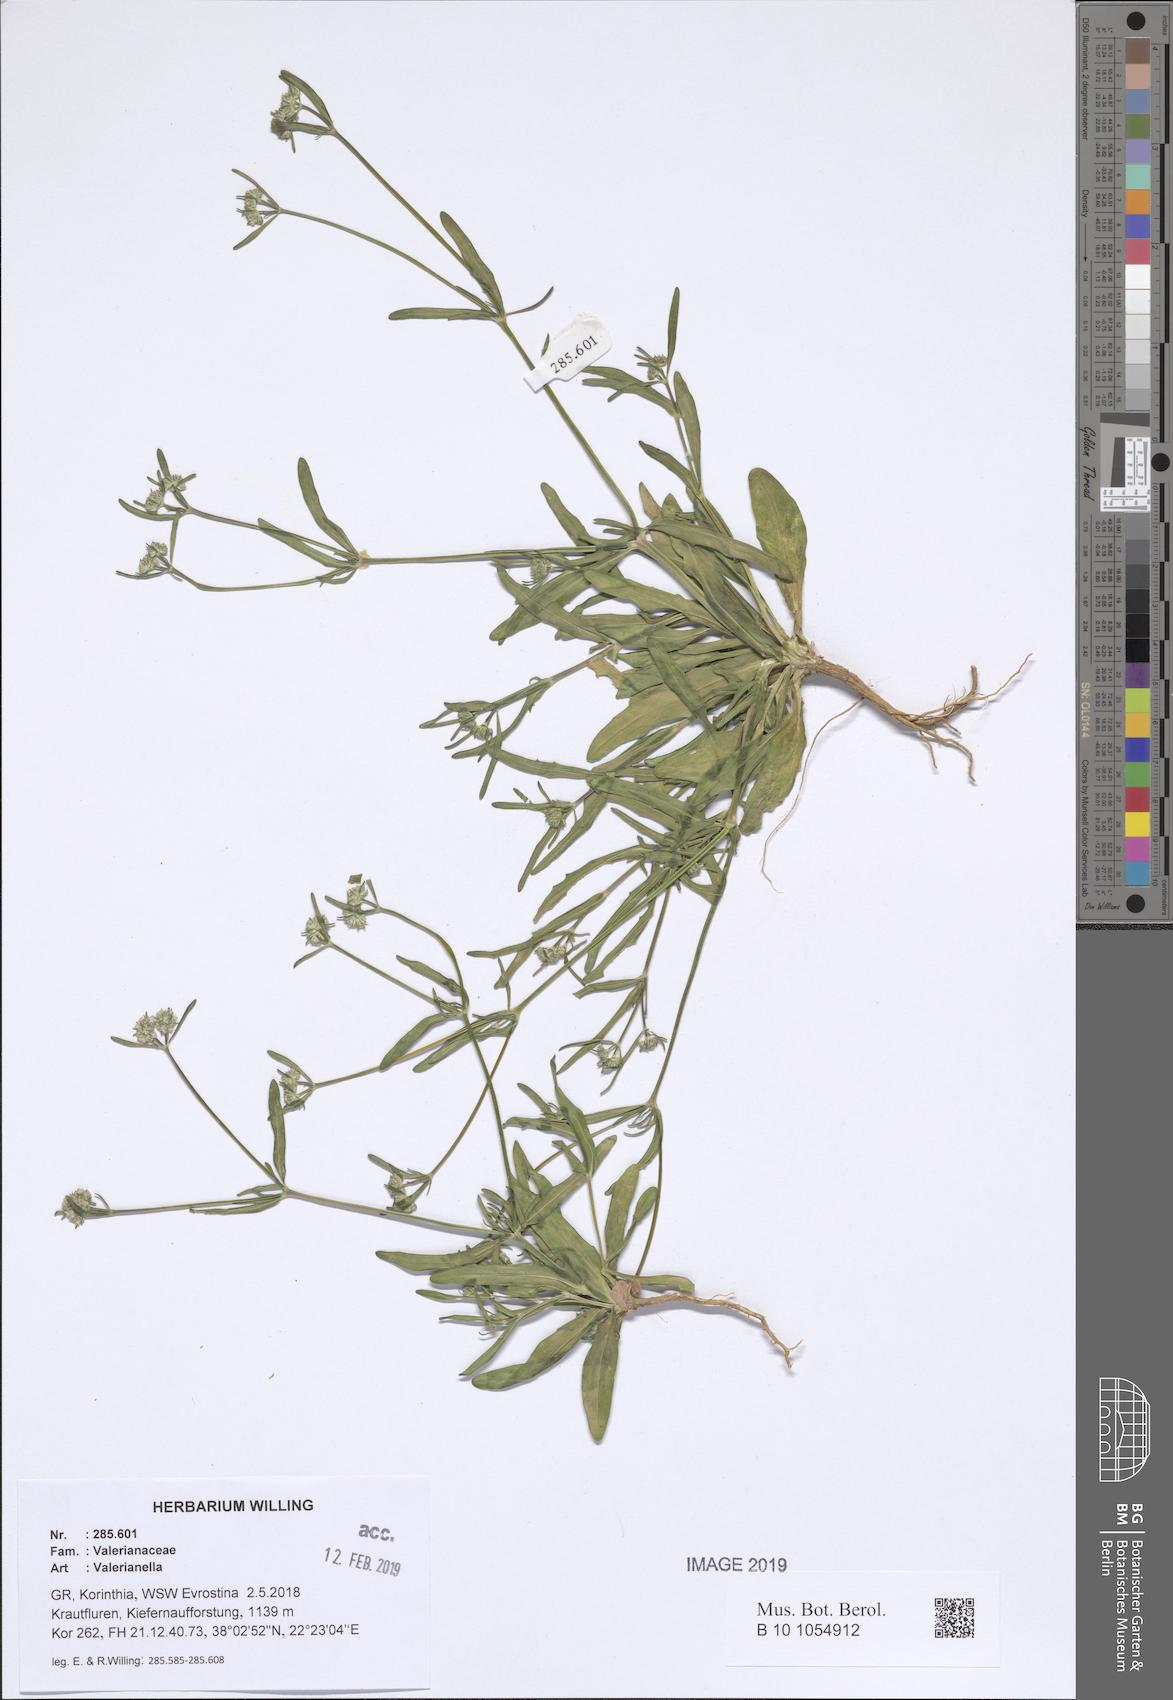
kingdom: Plantae
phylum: Tracheophyta
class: Magnoliopsida
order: Dipsacales
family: Caprifoliaceae
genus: Valerianella
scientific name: Valerianella
